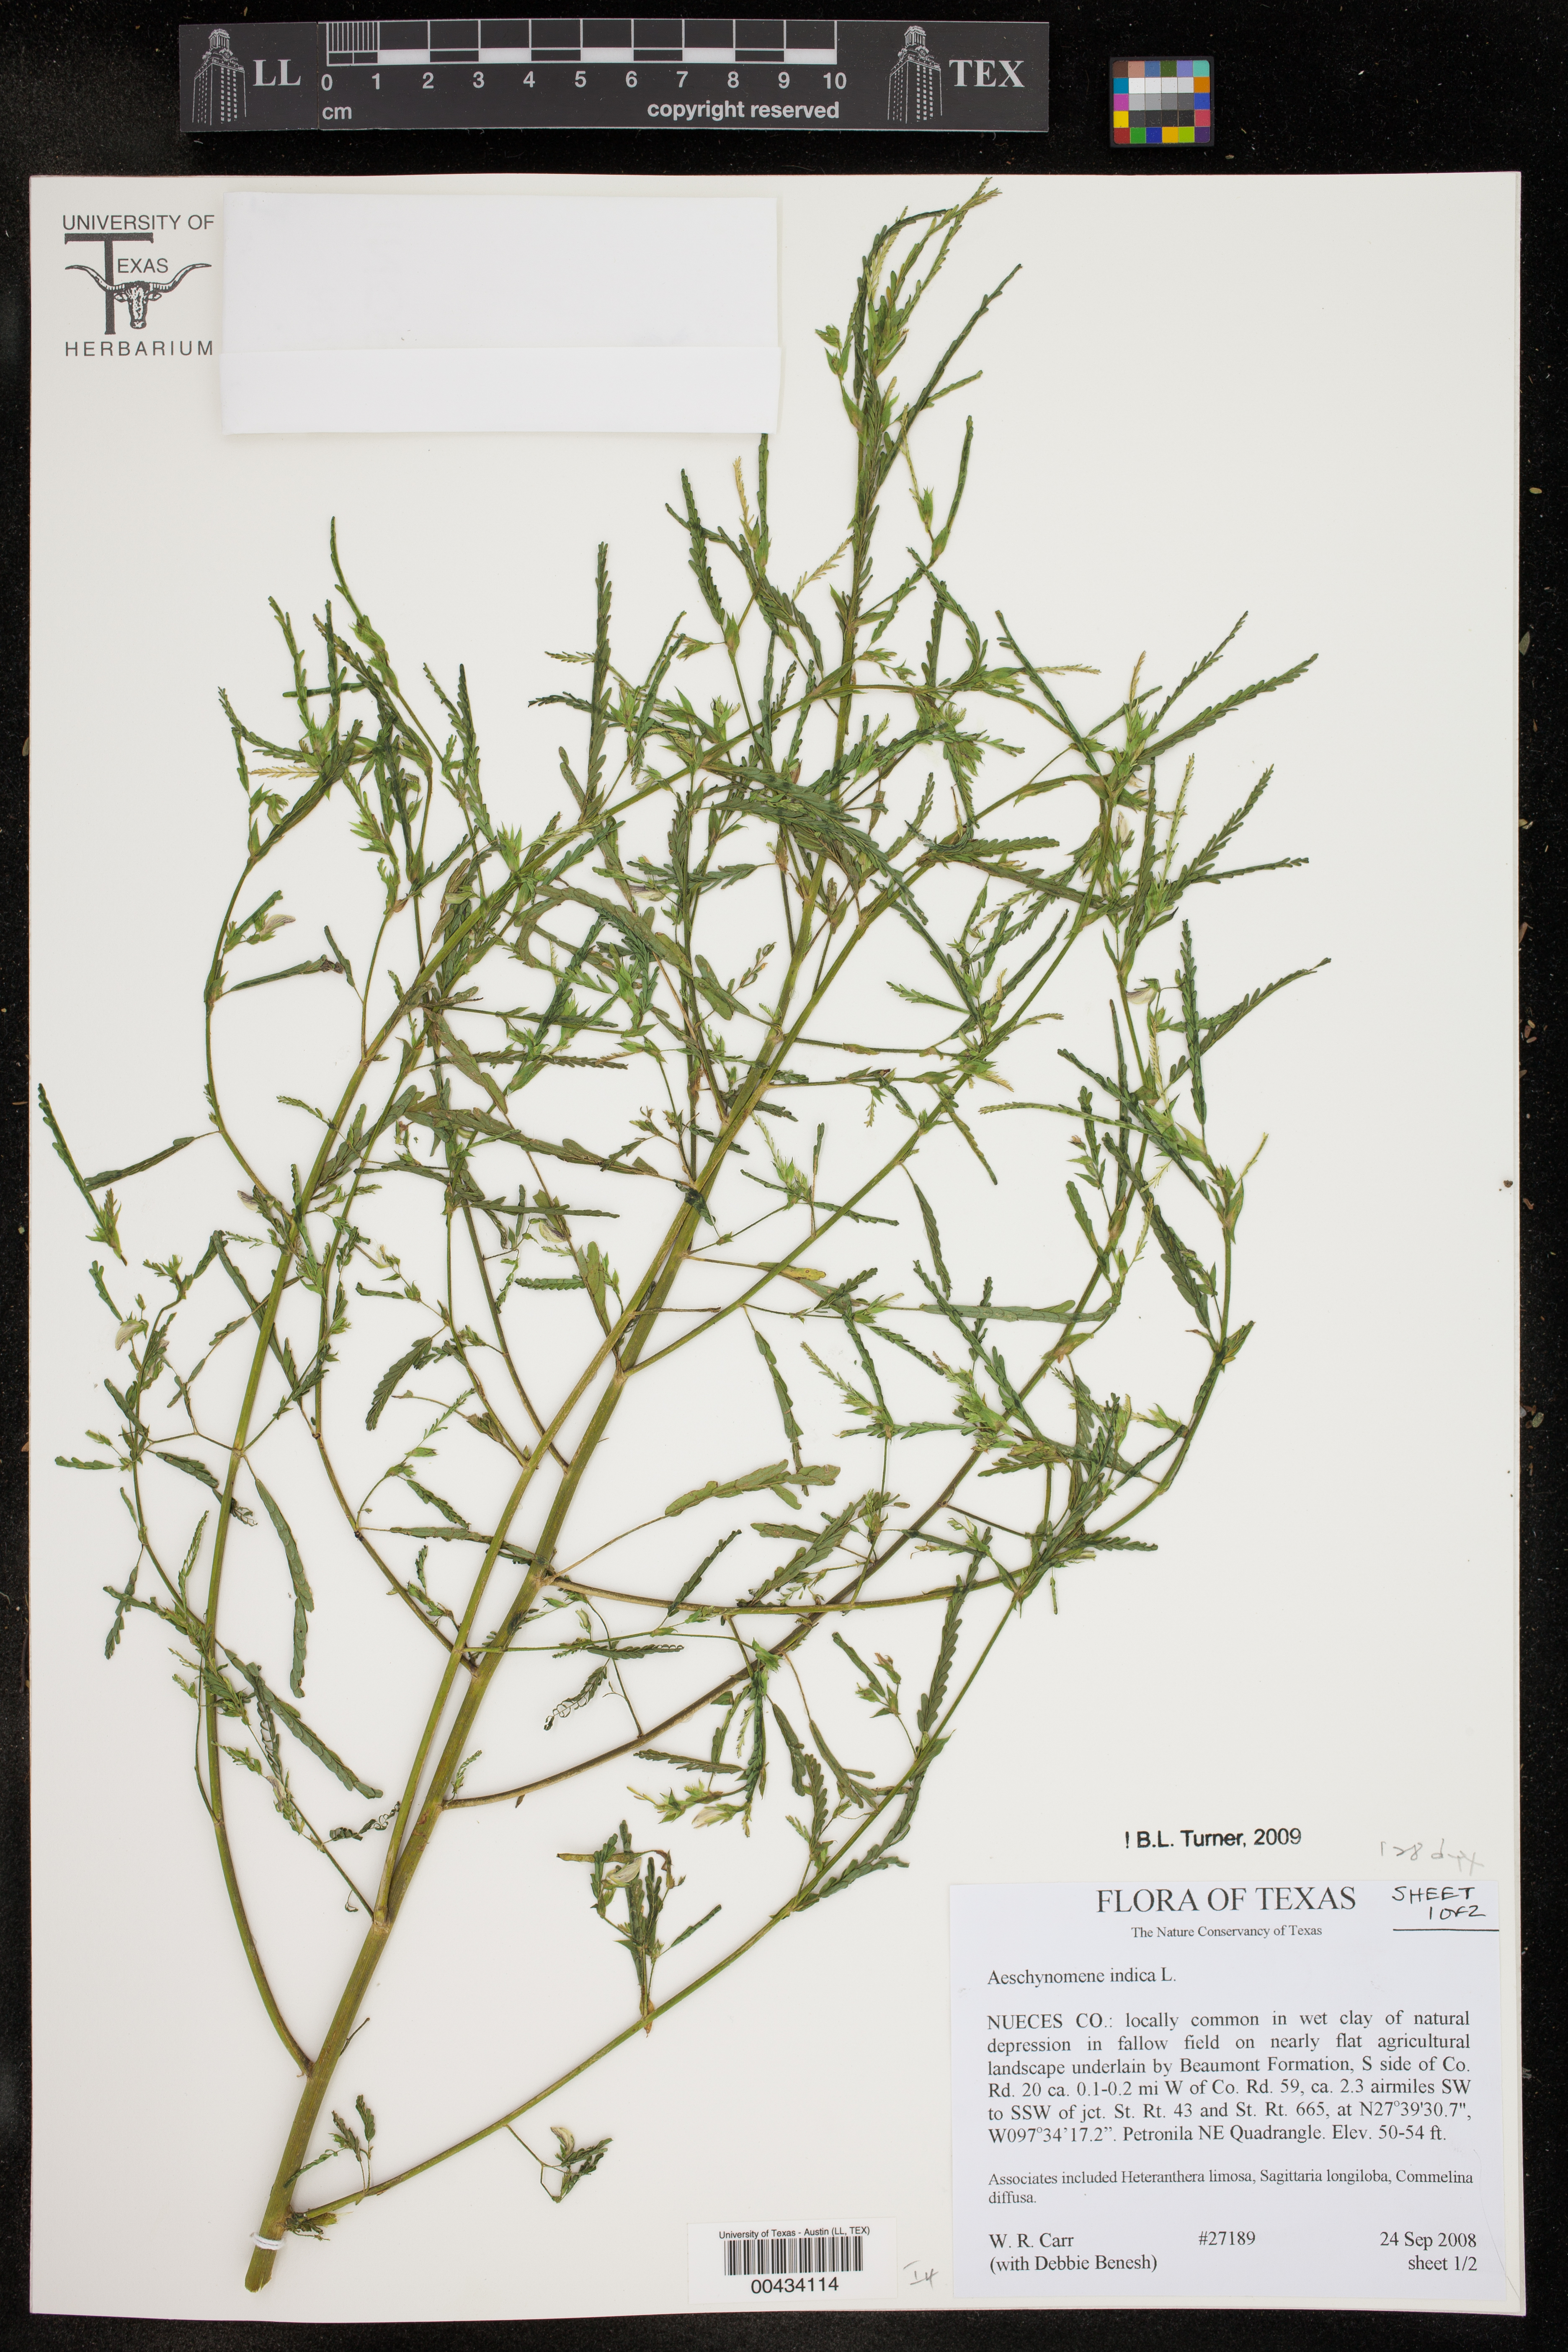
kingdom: Plantae
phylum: Tracheophyta
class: Magnoliopsida
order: Fabales
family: Fabaceae
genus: Aeschynomene
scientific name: Aeschynomene indica
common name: Indian jointvetch
